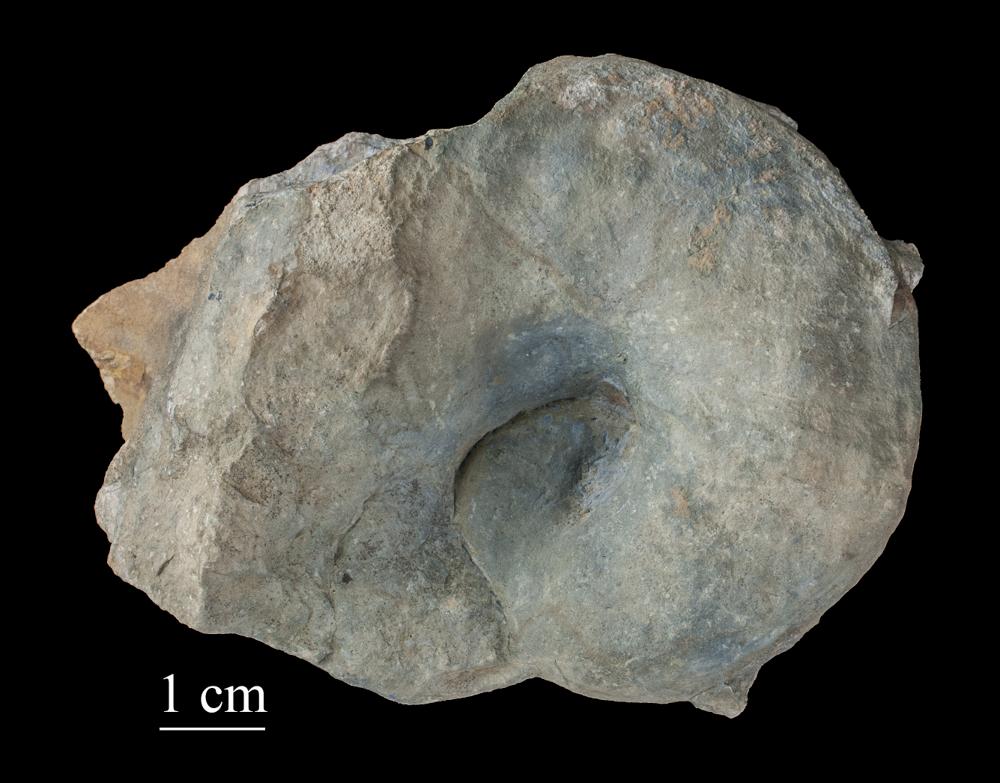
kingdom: Animalia
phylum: Mollusca
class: Gastropoda
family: Bellerophontidae
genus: Bellerophon
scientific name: Bellerophon
